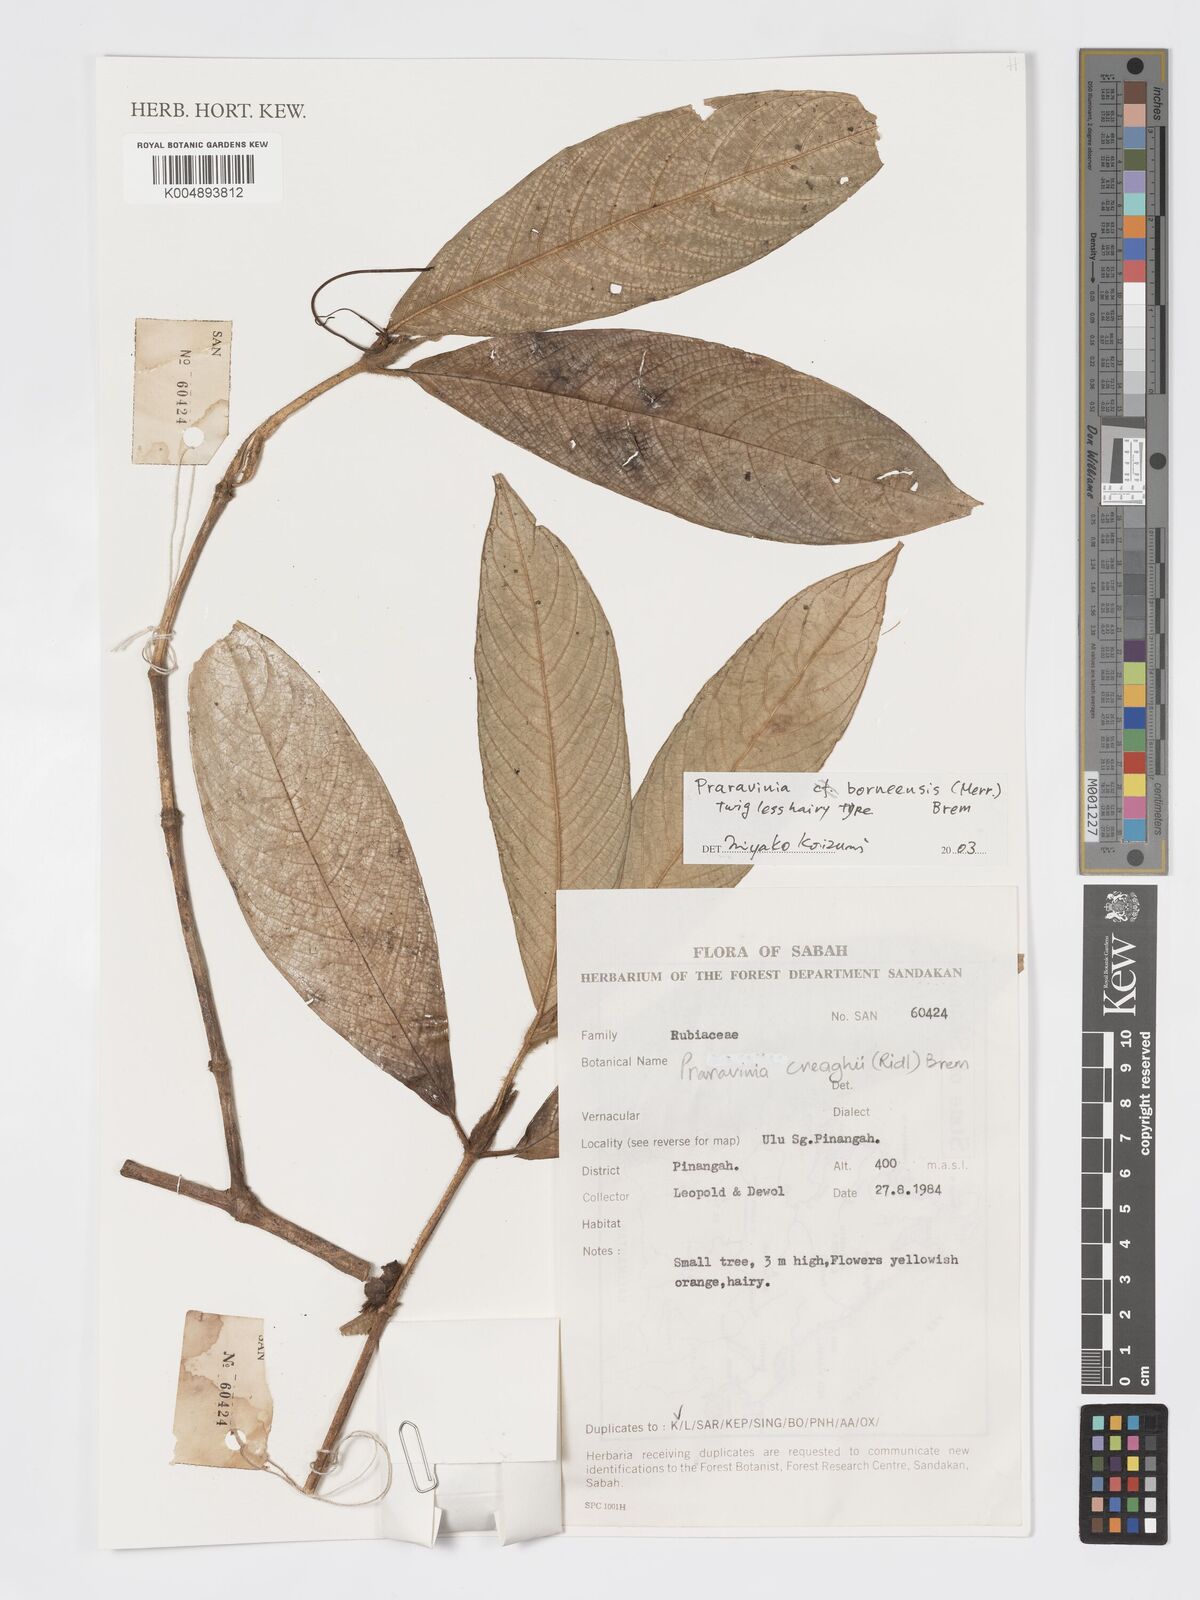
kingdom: Plantae
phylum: Tracheophyta
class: Magnoliopsida
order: Gentianales
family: Rubiaceae
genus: Praravinia
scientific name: Praravinia borneensis
